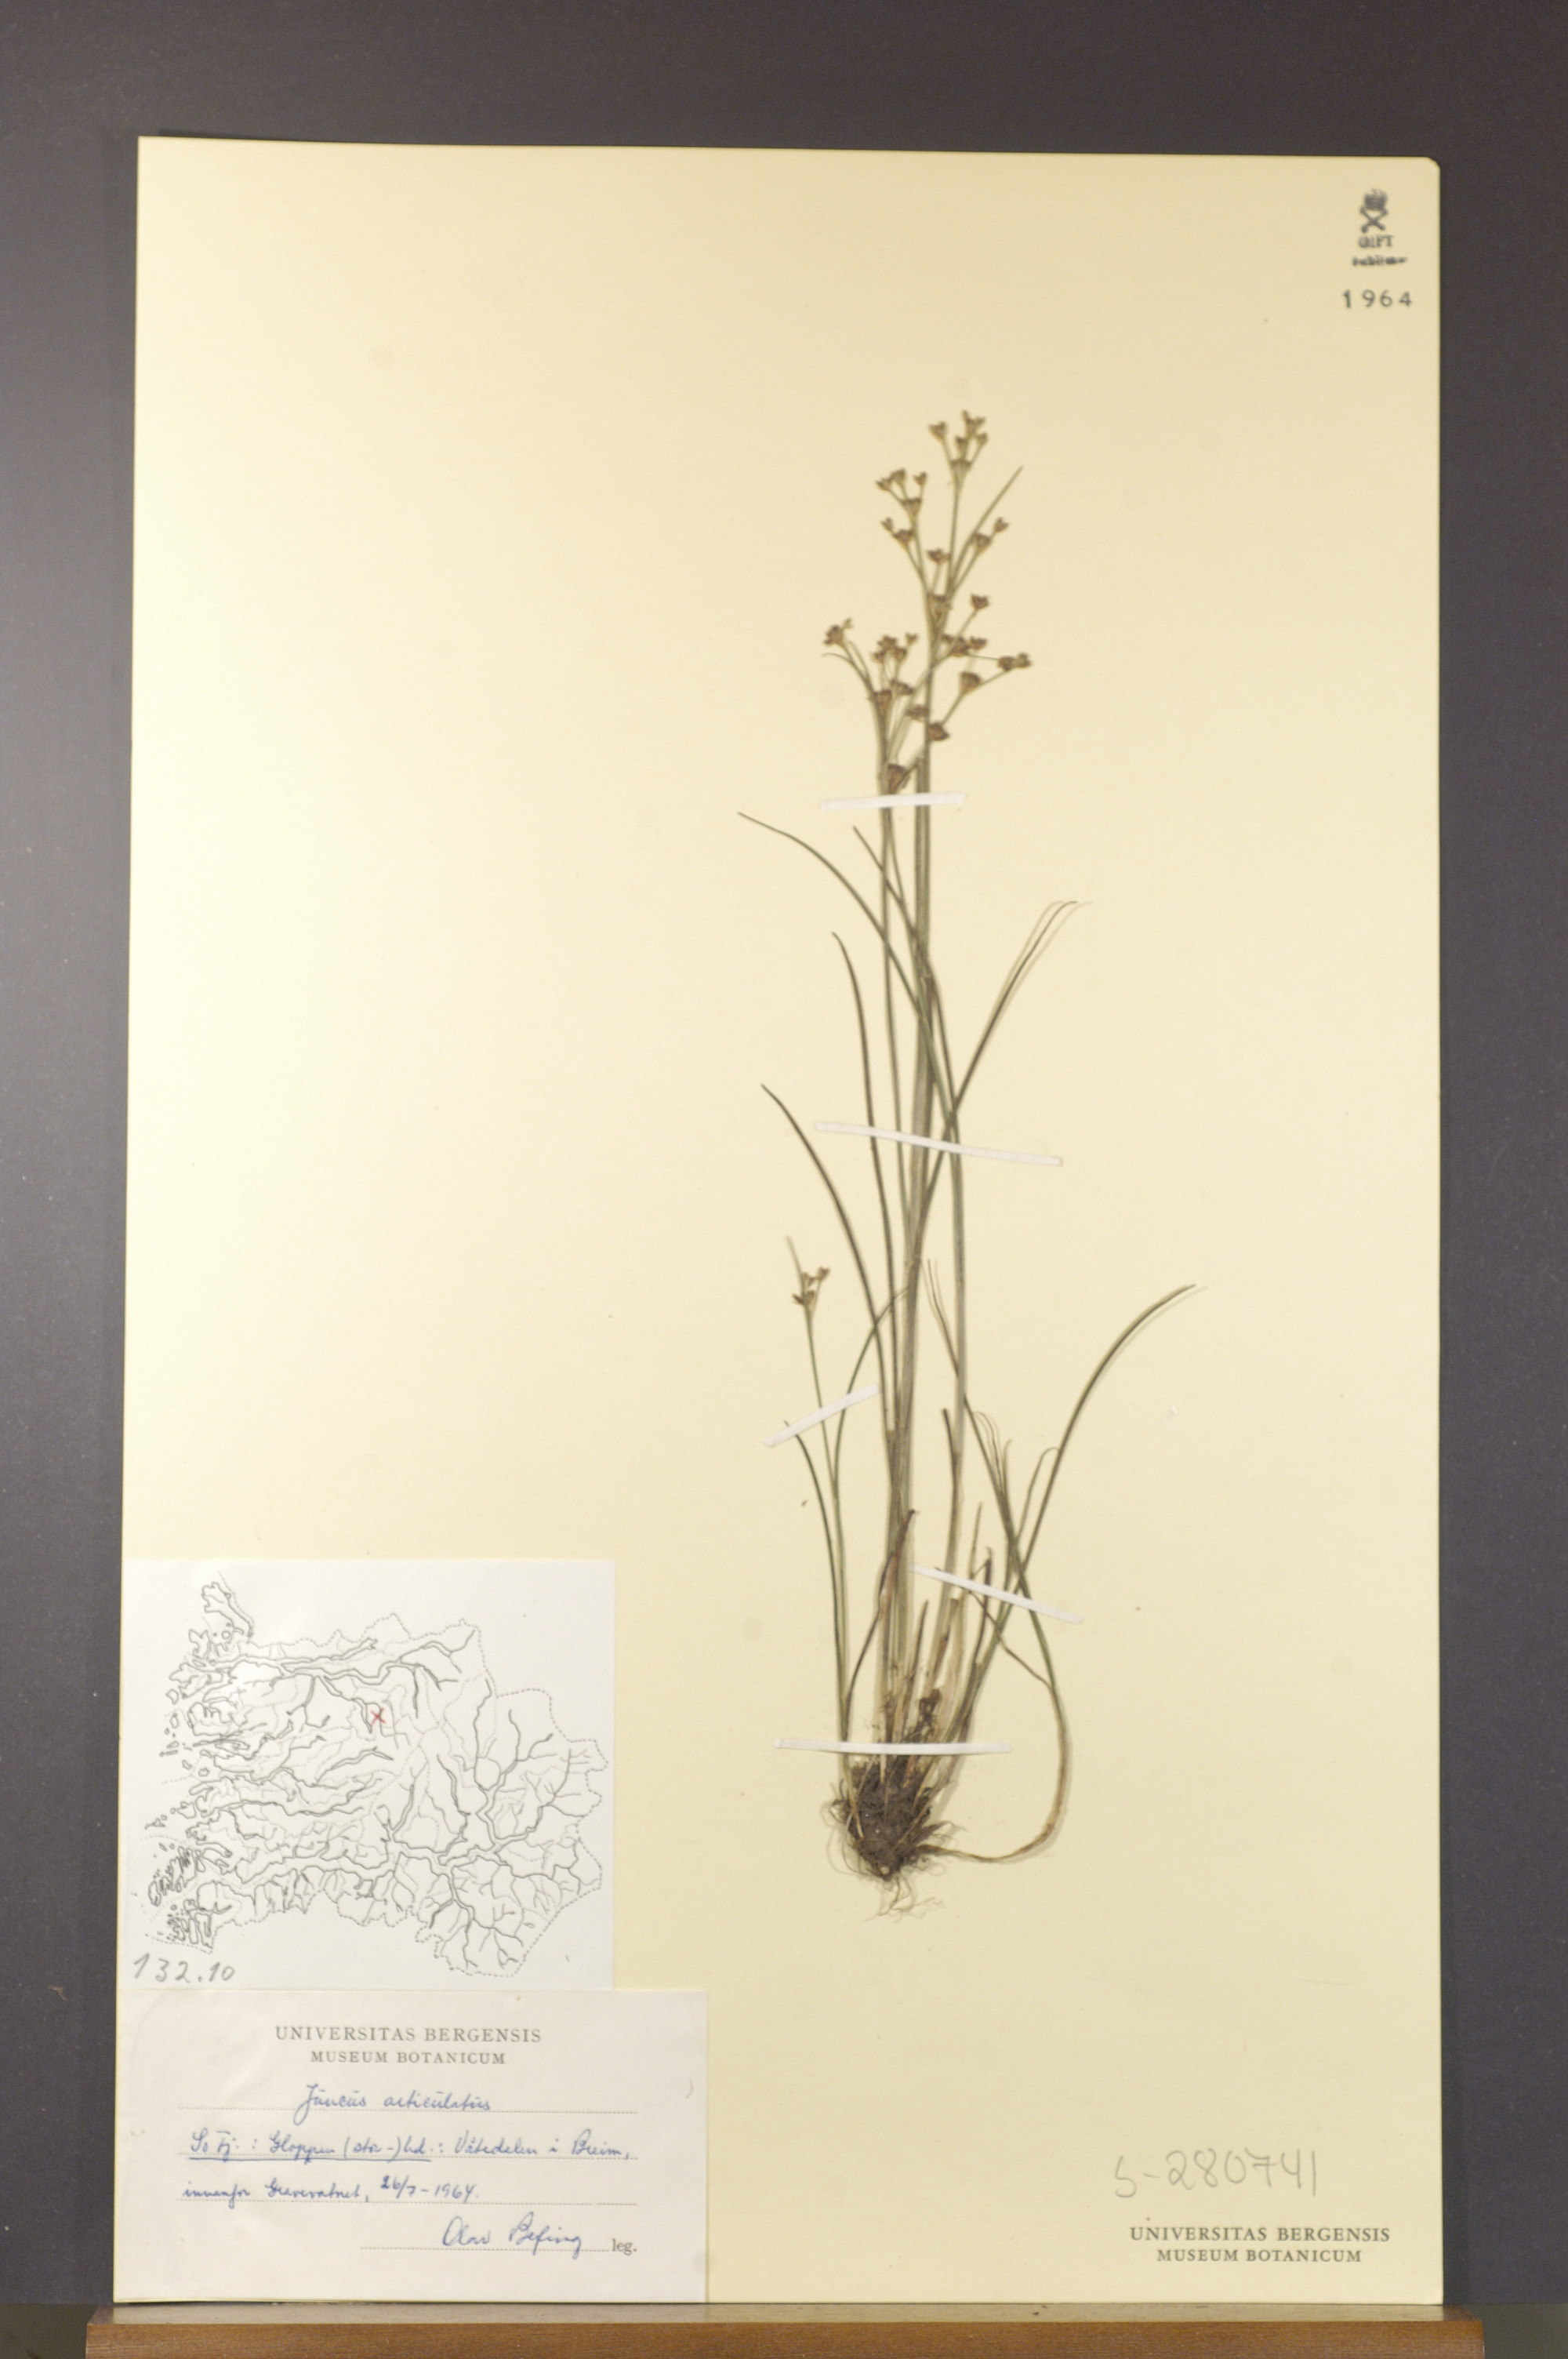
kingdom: Plantae
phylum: Tracheophyta
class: Liliopsida
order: Poales
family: Juncaceae
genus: Juncus
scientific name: Juncus articulatus
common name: Jointed rush
